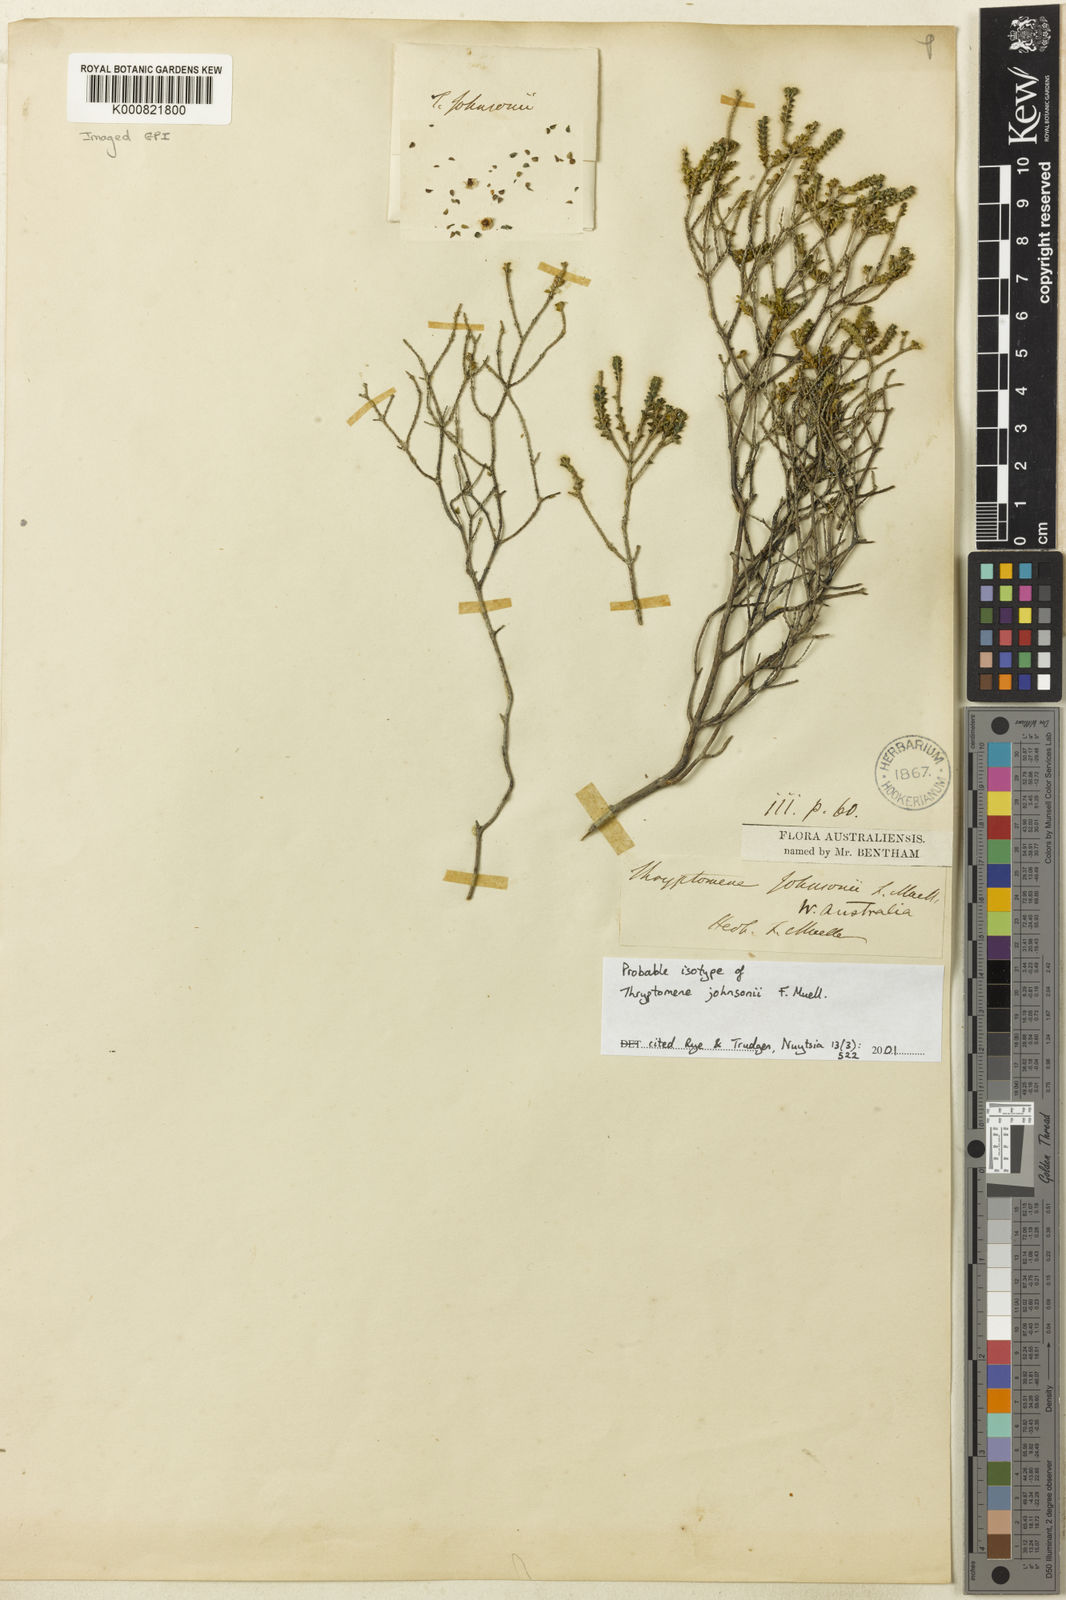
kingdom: Plantae
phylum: Tracheophyta
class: Magnoliopsida
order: Myrtales
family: Myrtaceae
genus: Thryptomene
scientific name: Thryptomene johnsonii
